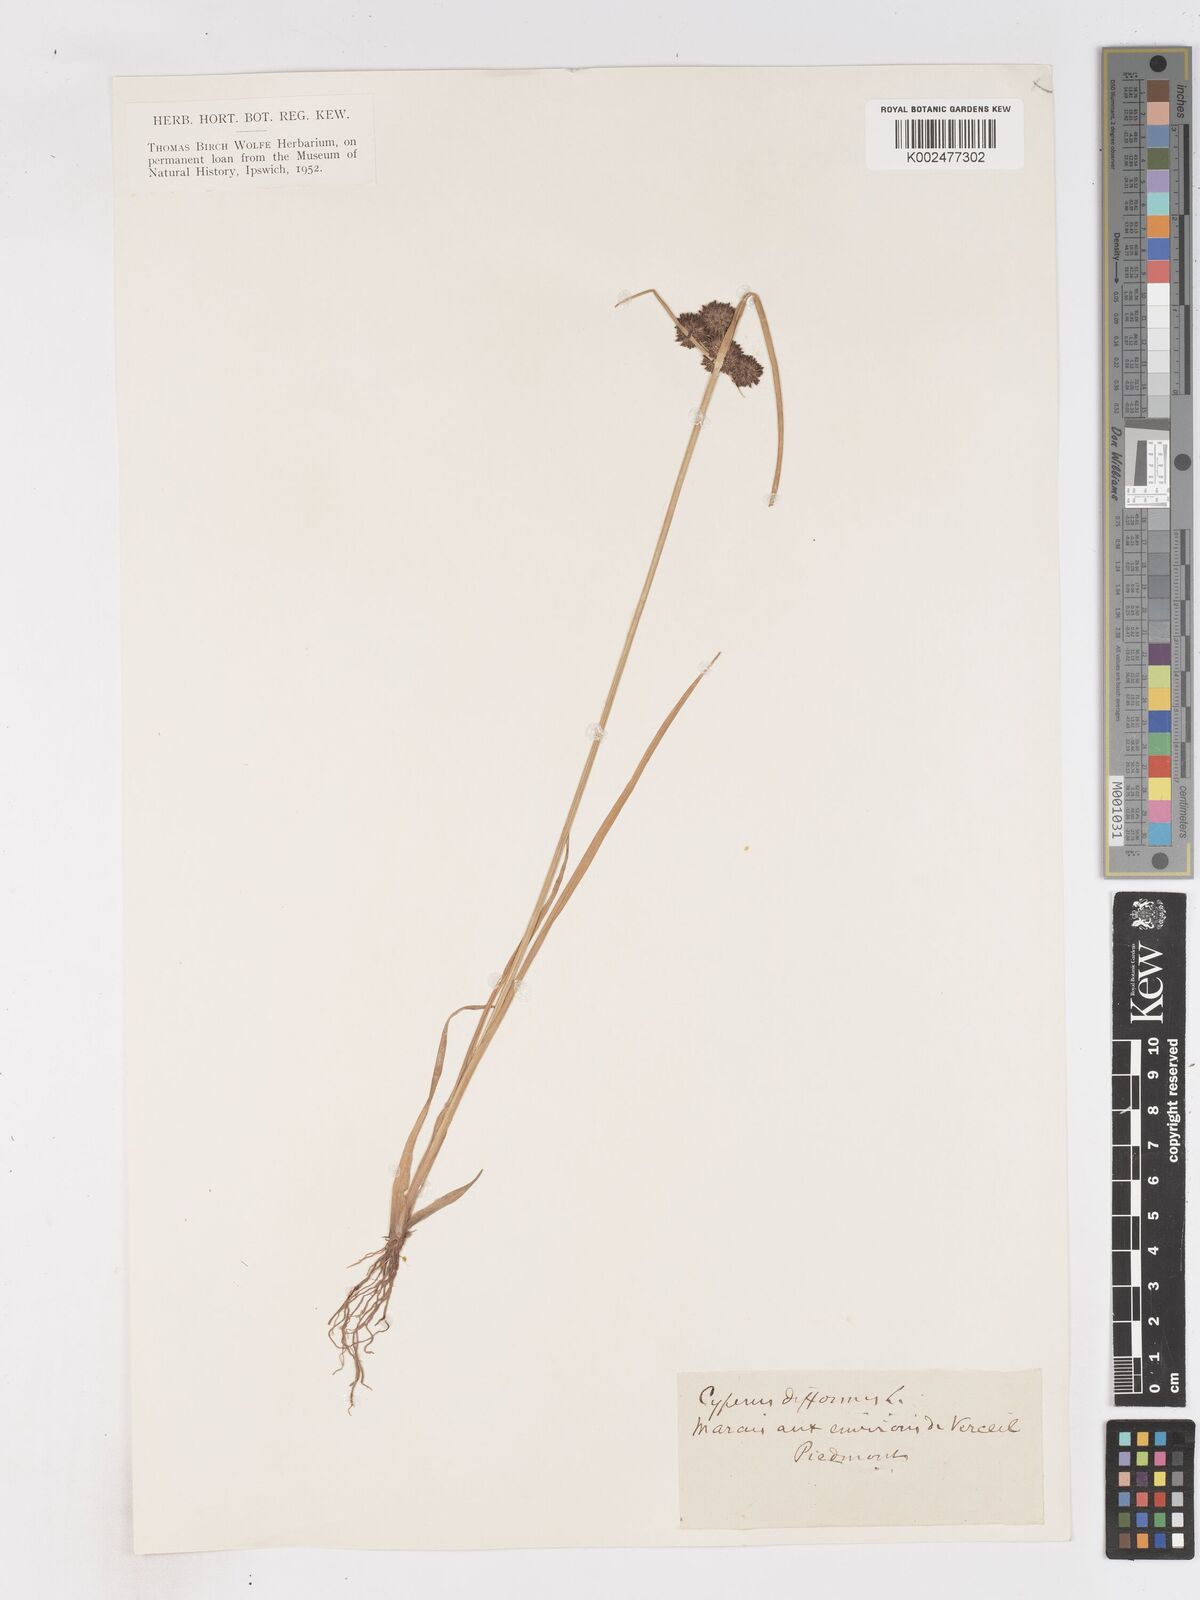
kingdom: Plantae
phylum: Tracheophyta
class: Liliopsida
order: Poales
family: Cyperaceae
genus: Cyperus
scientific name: Cyperus difformis
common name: Variable flatsedge
